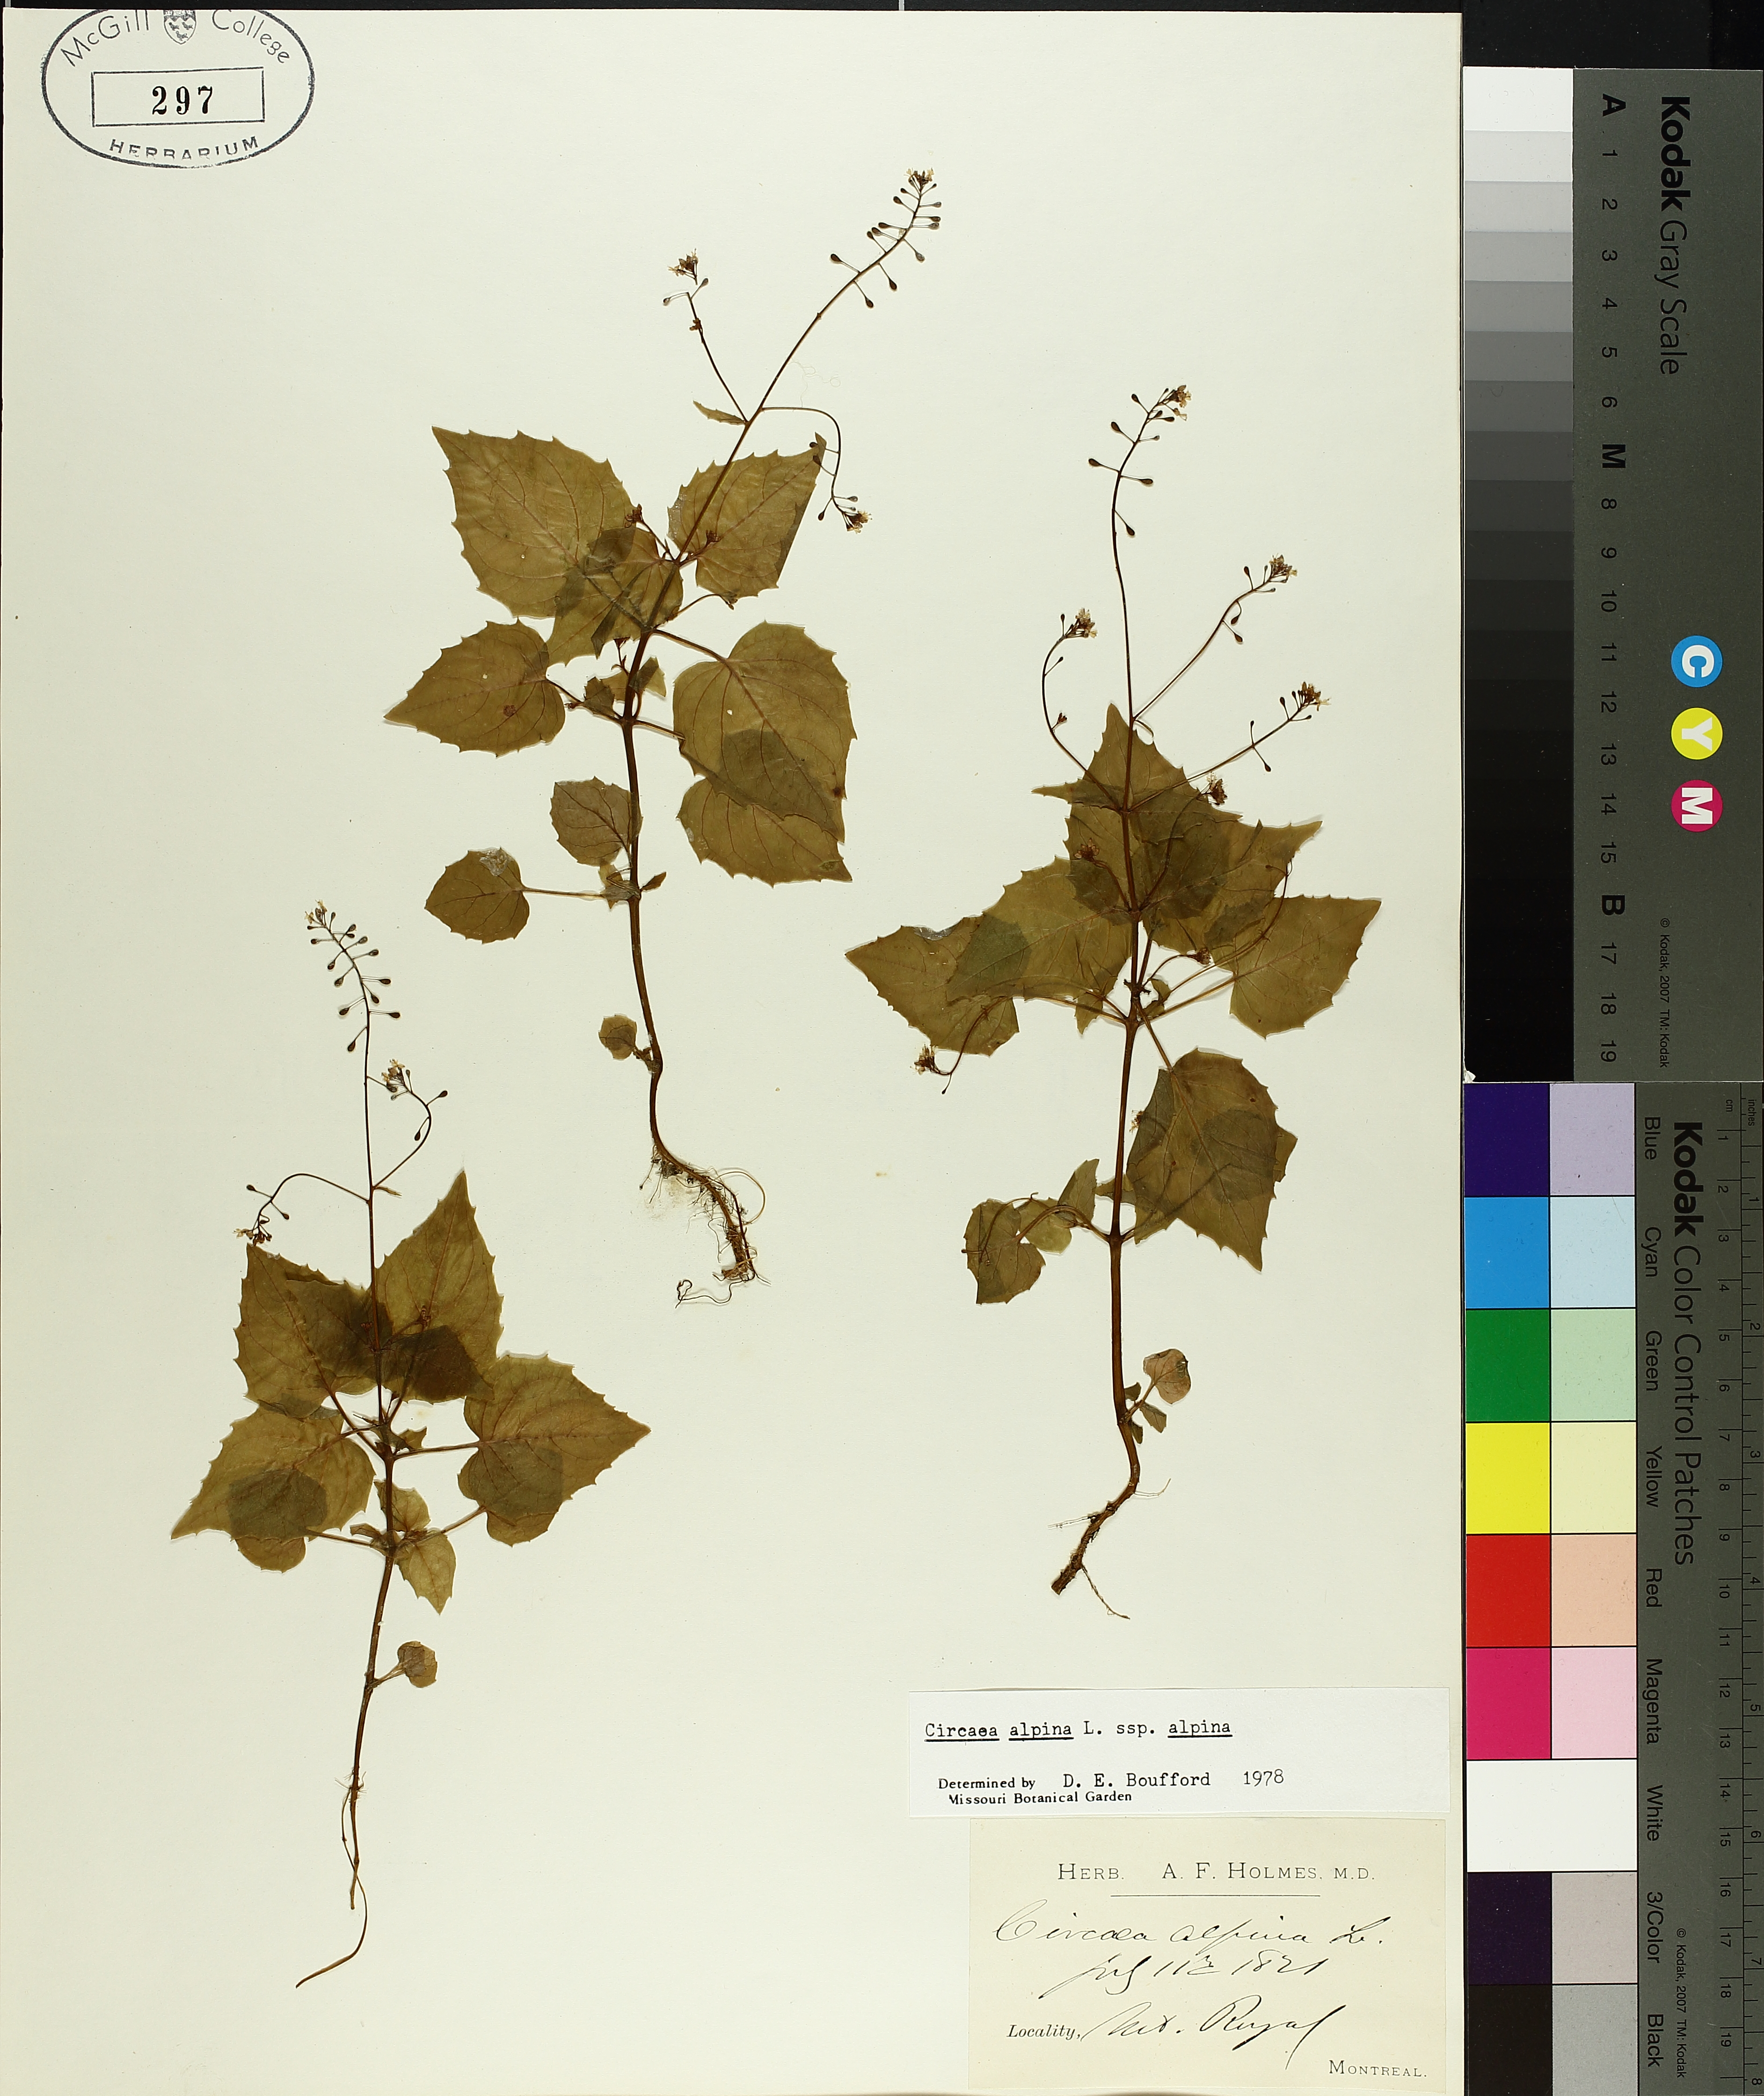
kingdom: Plantae
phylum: Tracheophyta
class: Magnoliopsida
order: Myrtales
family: Onagraceae
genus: Circaea
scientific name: Circaea alpina
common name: Alpine enchanter's-nightshade
